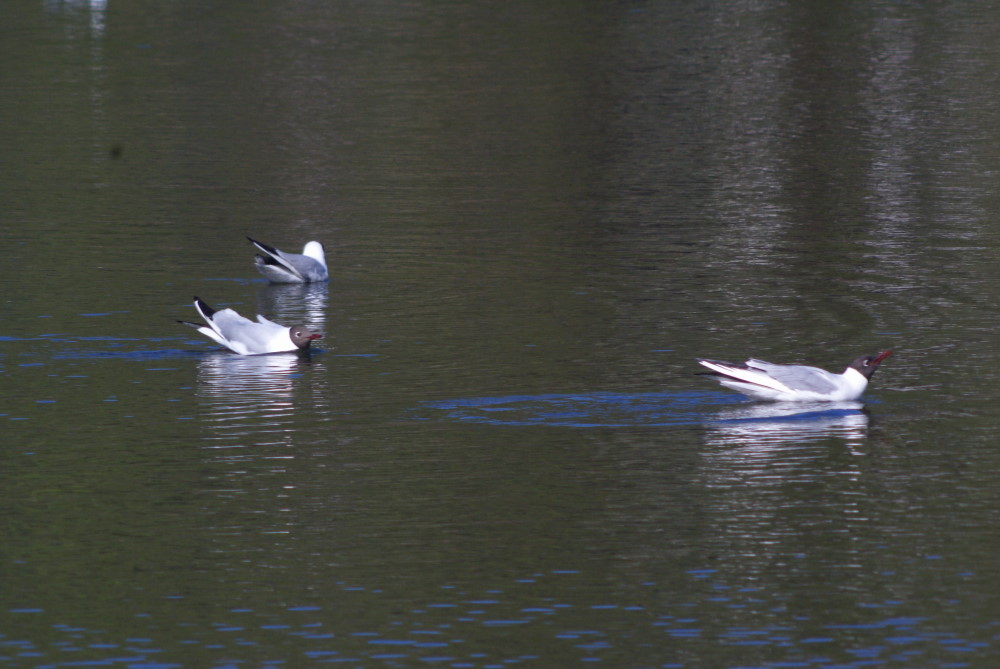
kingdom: Animalia
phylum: Chordata
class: Aves
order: Charadriiformes
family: Laridae
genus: Ichthyaetus
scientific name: Ichthyaetus melanocephalus
